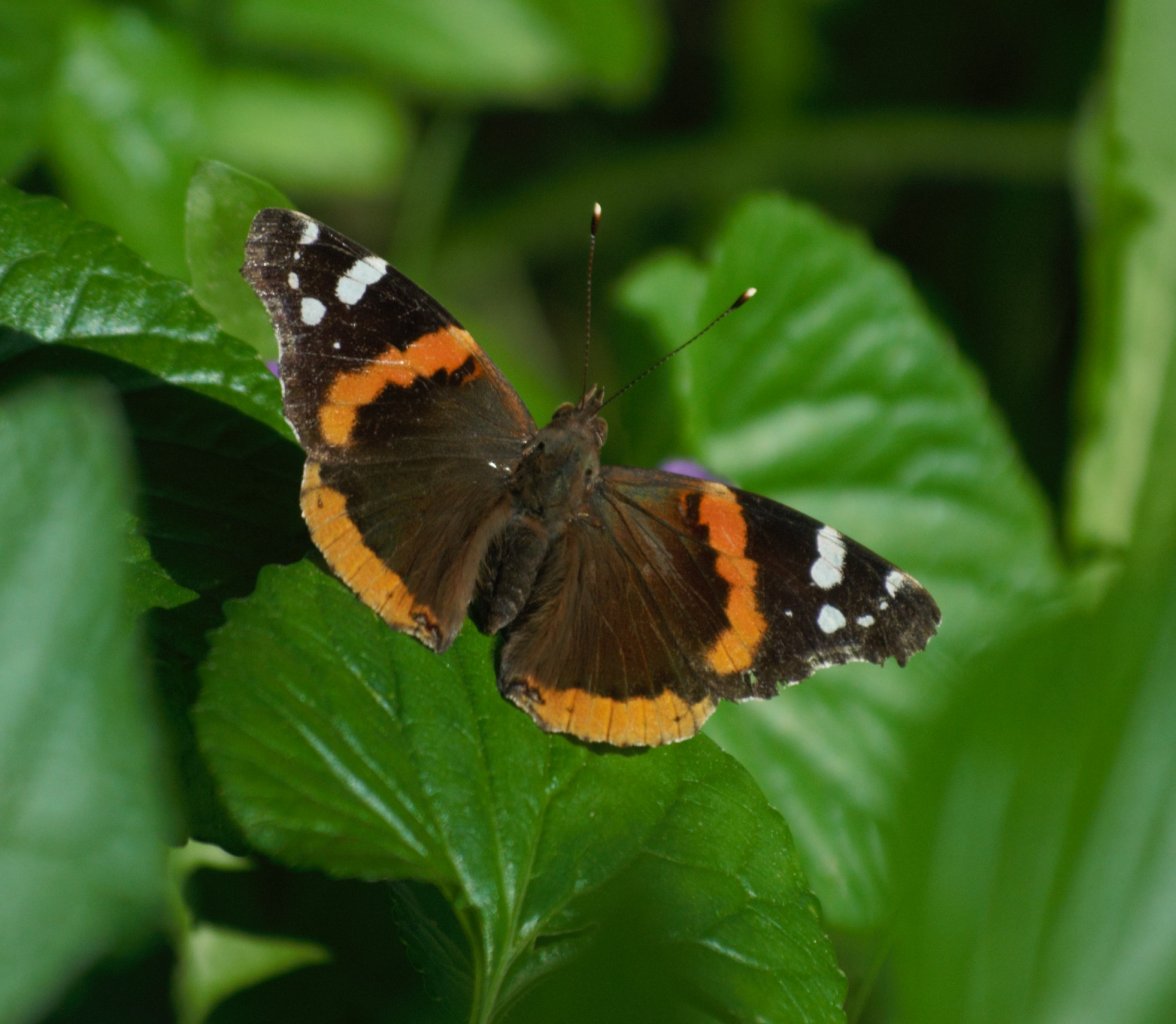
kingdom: Animalia
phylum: Arthropoda
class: Insecta
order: Lepidoptera
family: Nymphalidae
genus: Vanessa
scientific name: Vanessa atalanta
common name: Red Admiral
